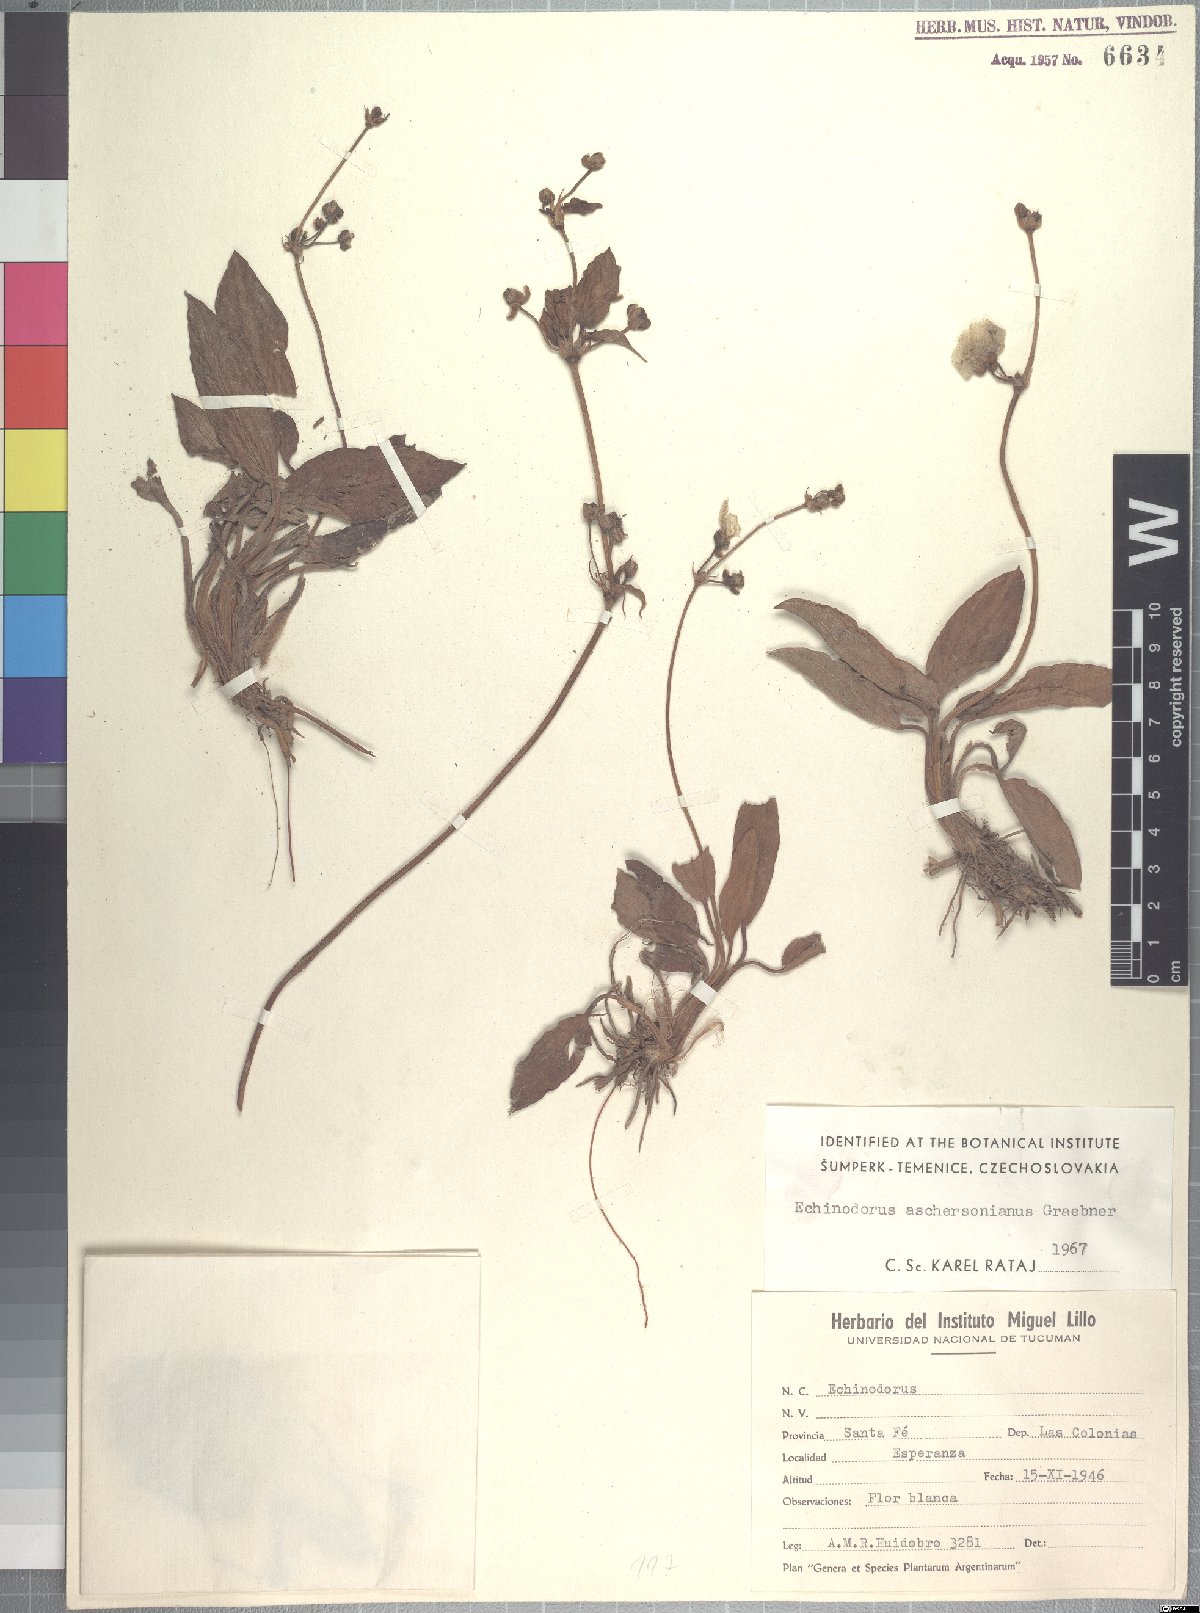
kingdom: Plantae
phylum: Tracheophyta
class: Liliopsida
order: Alismatales
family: Alismataceae
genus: Aquarius
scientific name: Aquarius uruguayensis
